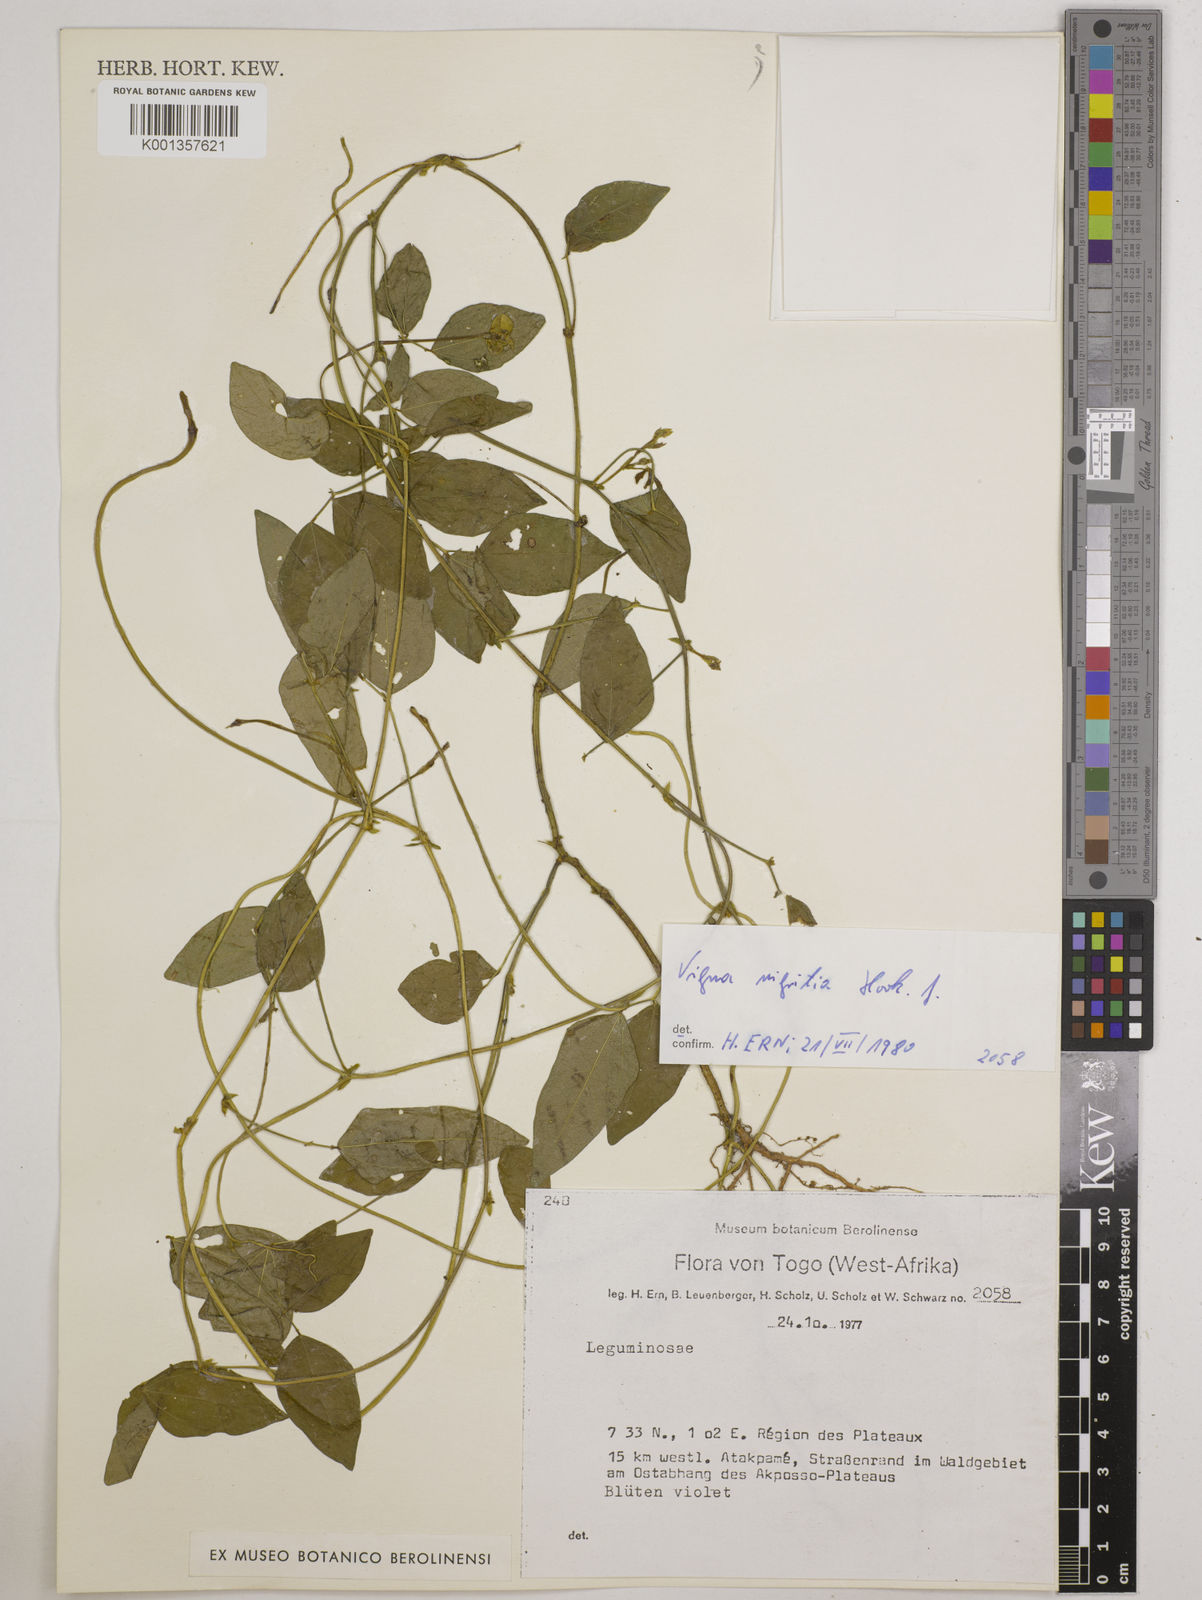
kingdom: Plantae
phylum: Tracheophyta
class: Magnoliopsida
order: Fabales
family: Fabaceae
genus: Vigna
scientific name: Vigna nigritia
